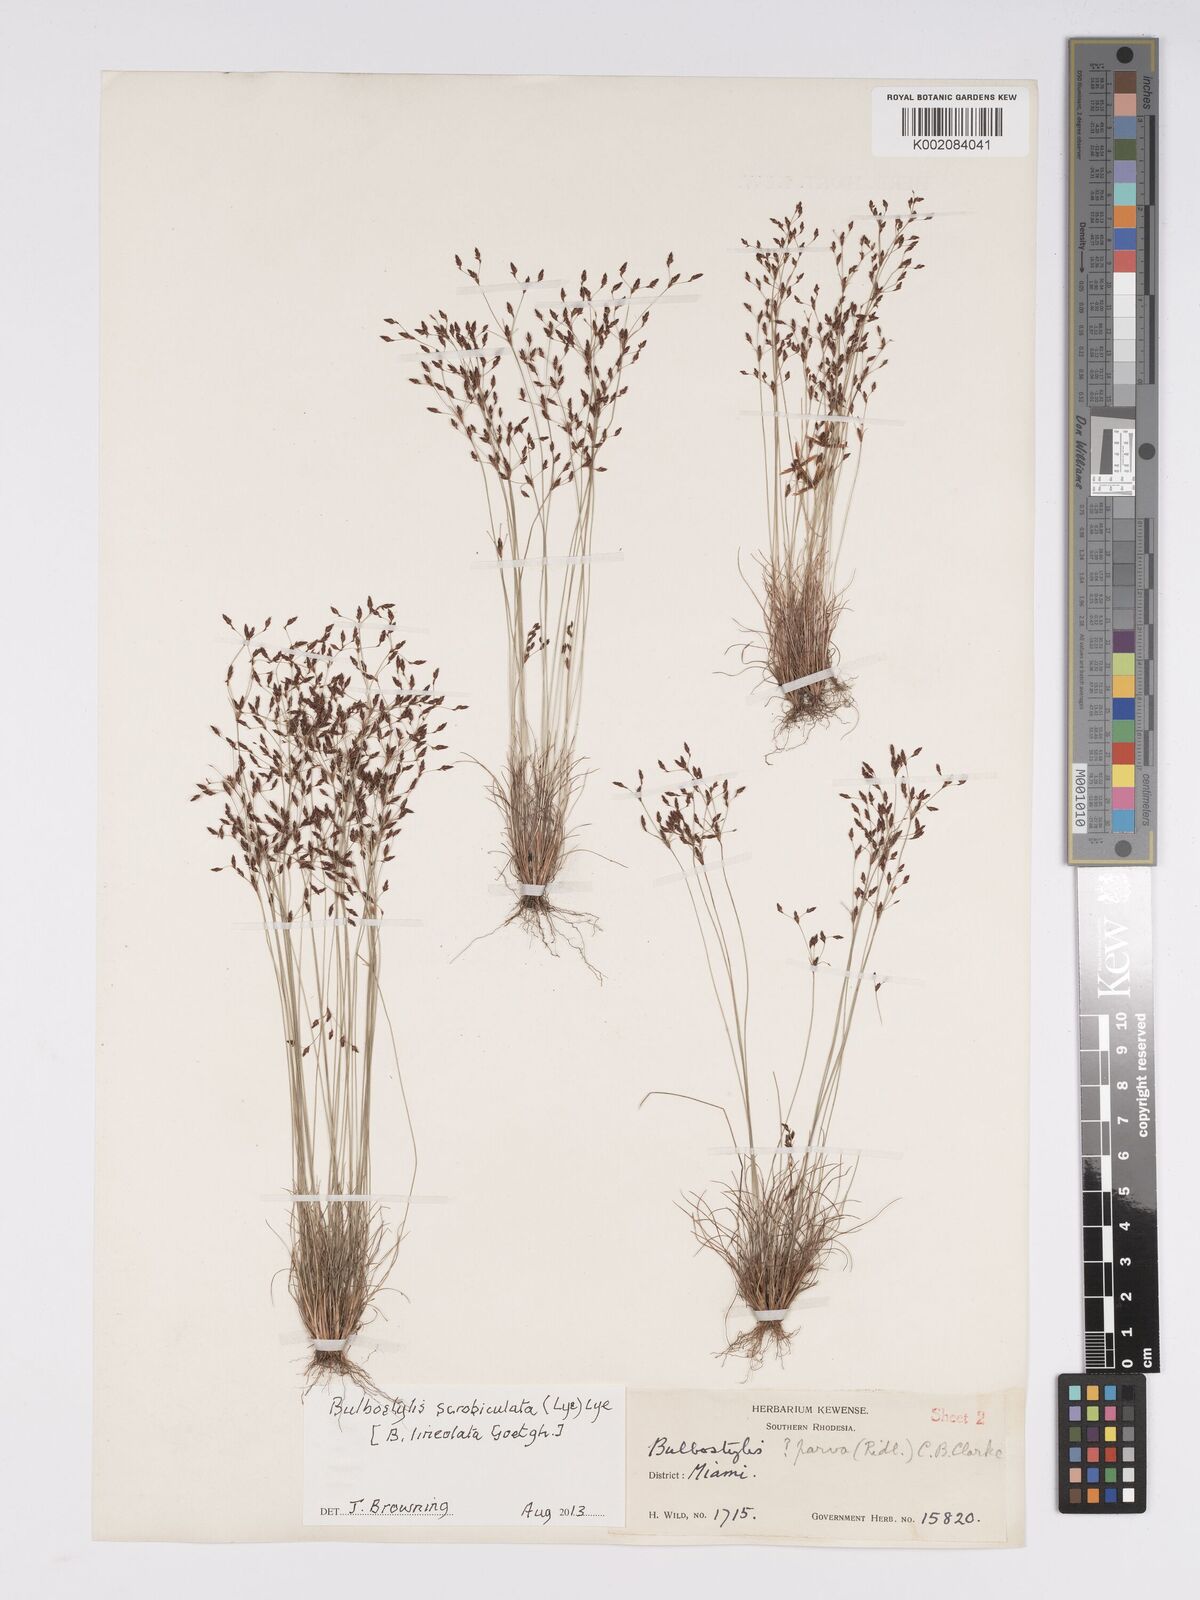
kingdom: Plantae
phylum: Tracheophyta
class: Liliopsida
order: Poales
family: Cyperaceae
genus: Bulbostylis
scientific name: Bulbostylis scrobiculata
